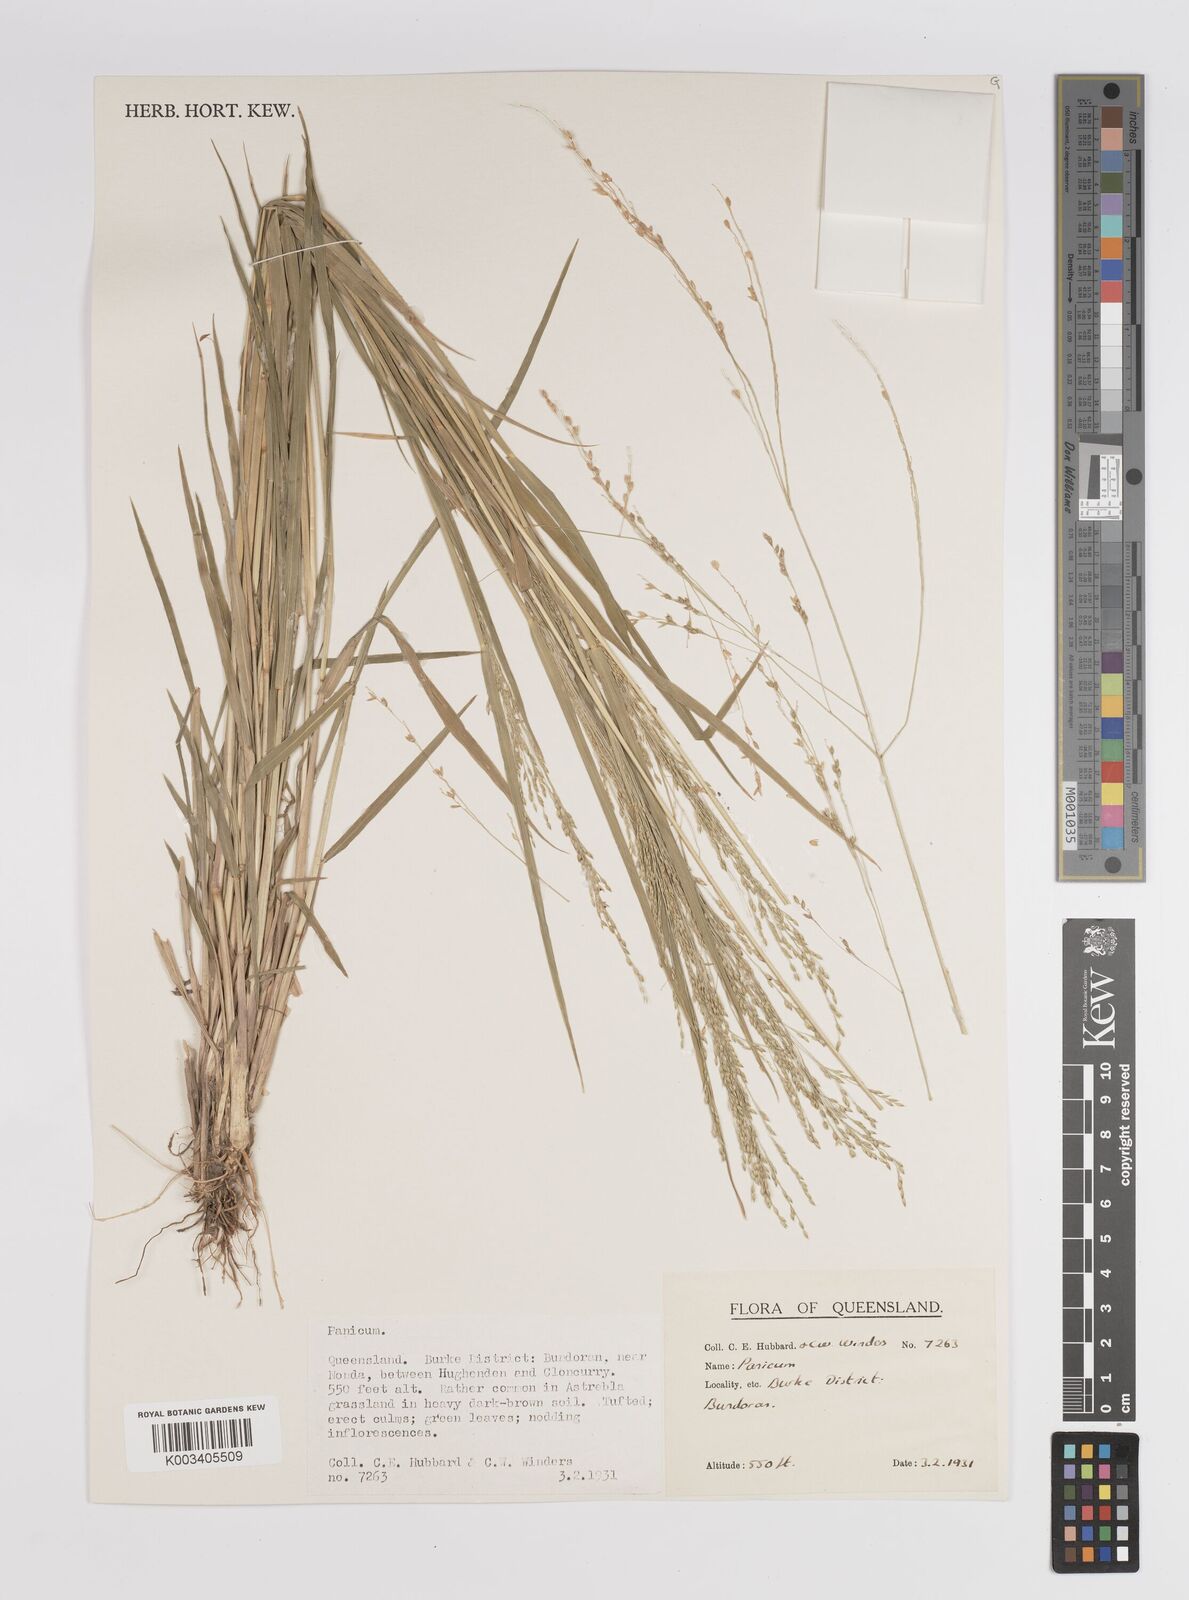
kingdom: Plantae
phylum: Tracheophyta
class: Liliopsida
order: Poales
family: Poaceae
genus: Panicum
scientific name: Panicum
